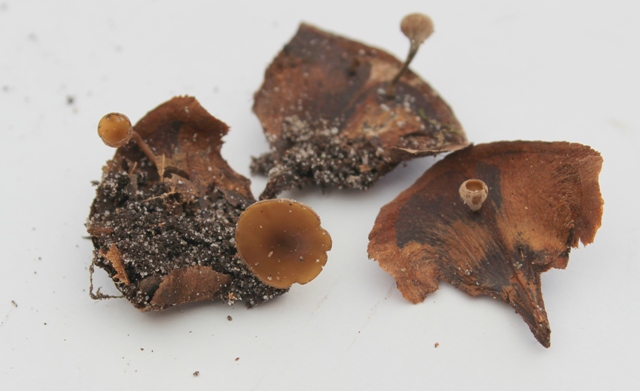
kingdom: Fungi
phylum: Ascomycota
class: Leotiomycetes
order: Helotiales
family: Sclerotiniaceae
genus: Ciboria
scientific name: Ciboria rufofusca
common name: kogleskæl-knoldskive
